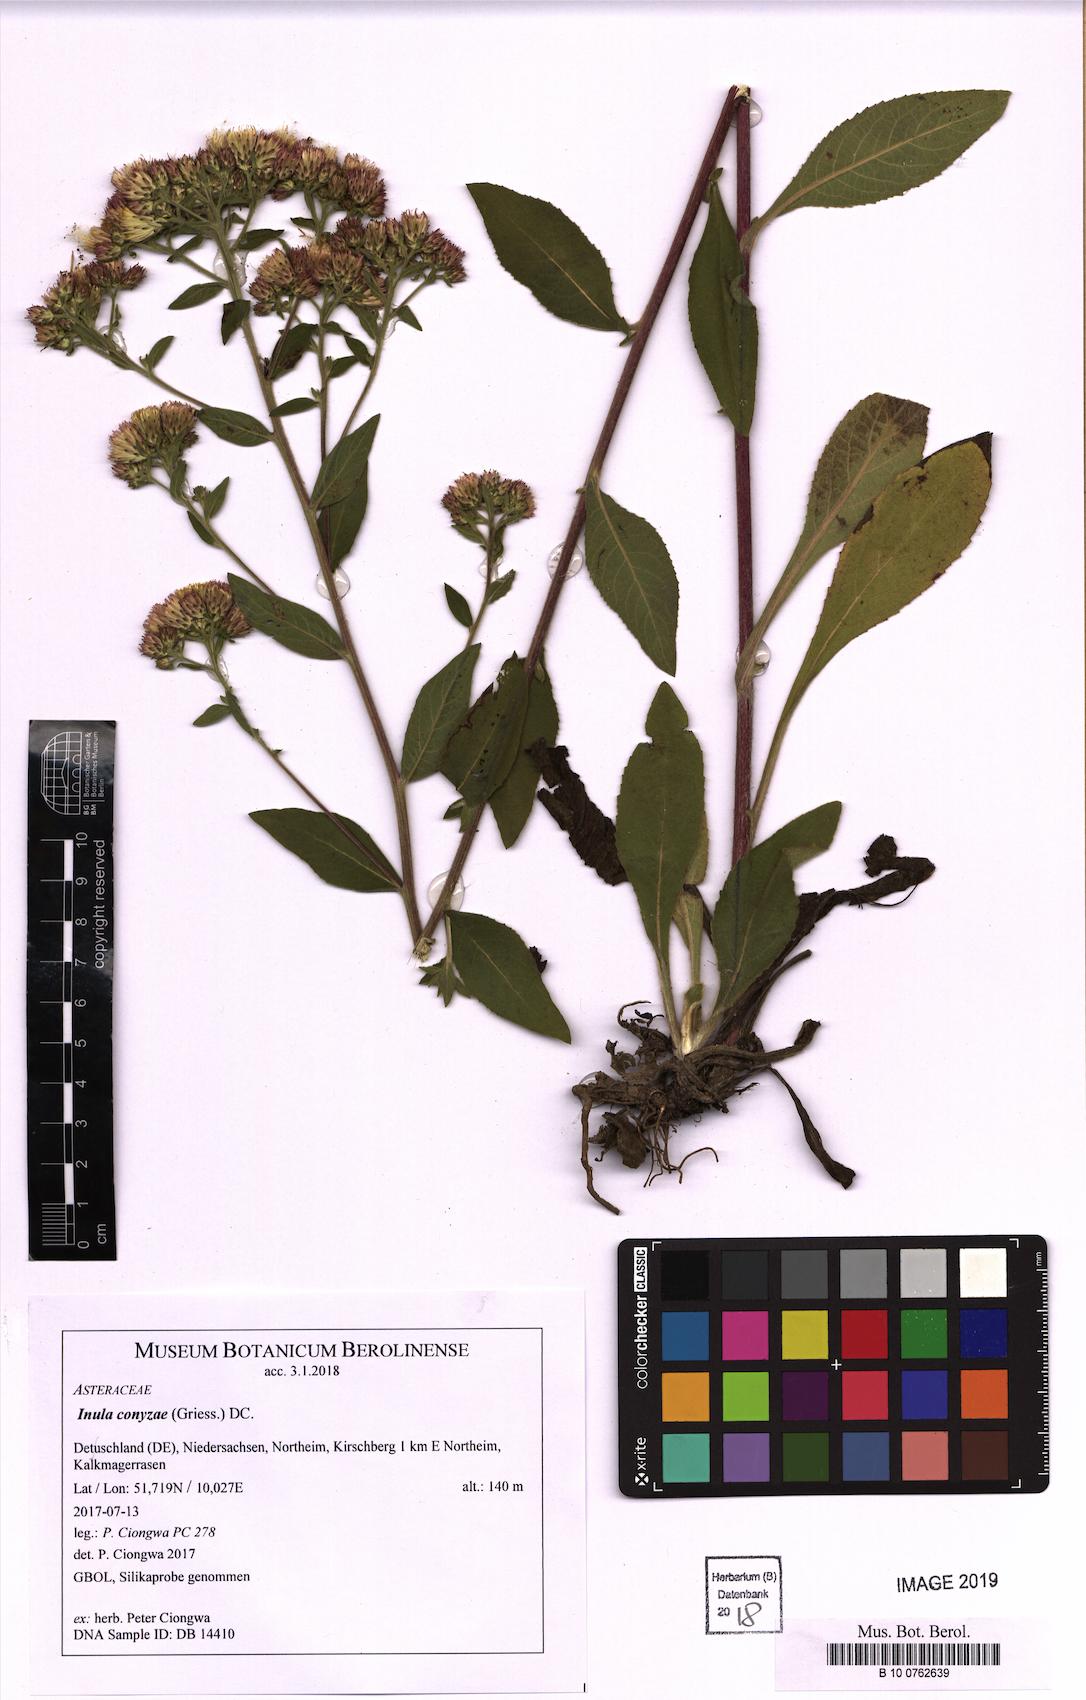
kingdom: Plantae
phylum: Tracheophyta
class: Magnoliopsida
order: Asterales
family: Asteraceae
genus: Pentanema
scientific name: Pentanema squarrosum
